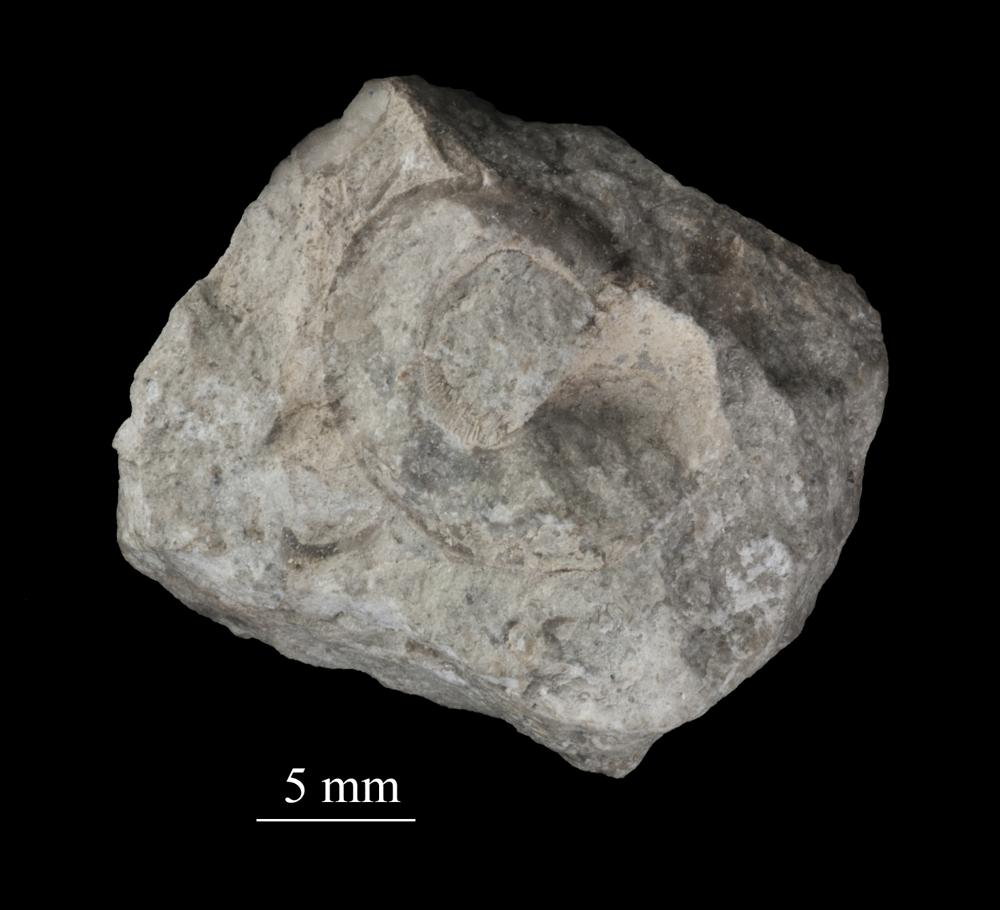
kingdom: Animalia
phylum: Mollusca
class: Gastropoda
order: Neogastropoda
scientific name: Neogastropoda
